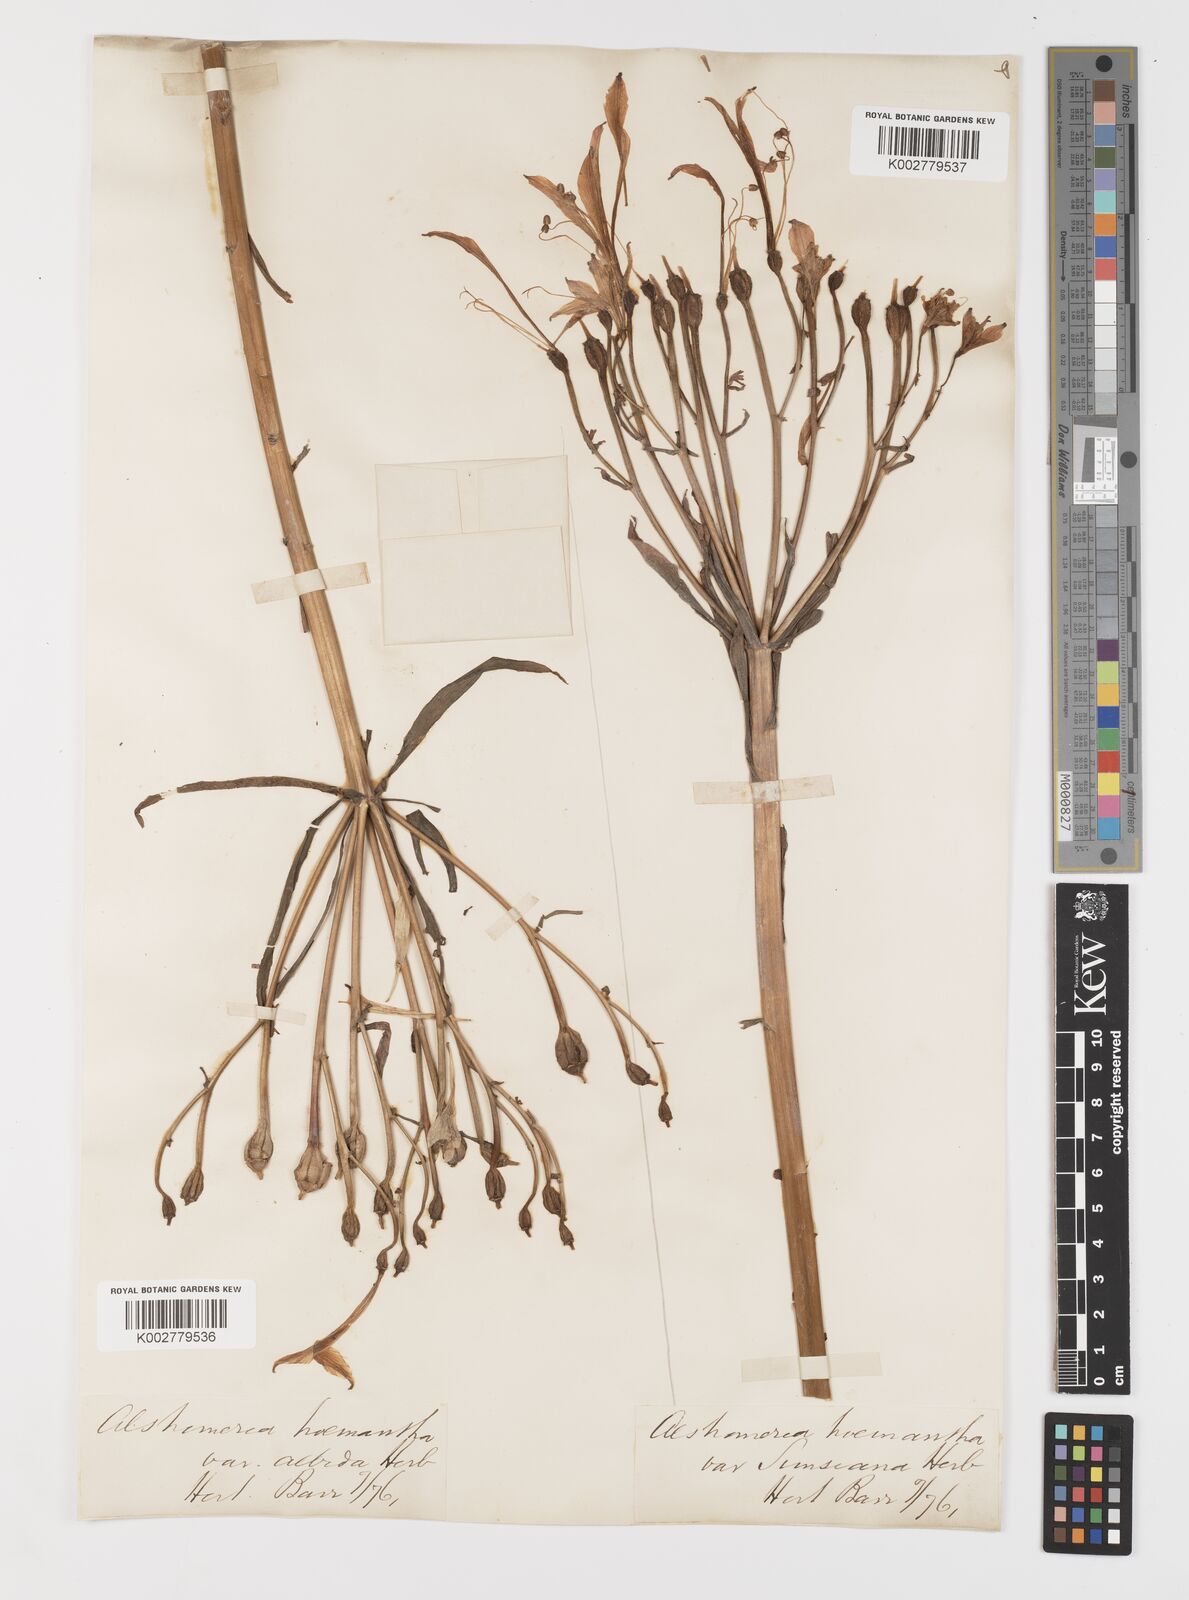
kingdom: Plantae
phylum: Tracheophyta
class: Liliopsida
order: Liliales
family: Alstroemeriaceae
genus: Alstroemeria
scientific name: Alstroemeria ligtu
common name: St. martin's-flower
